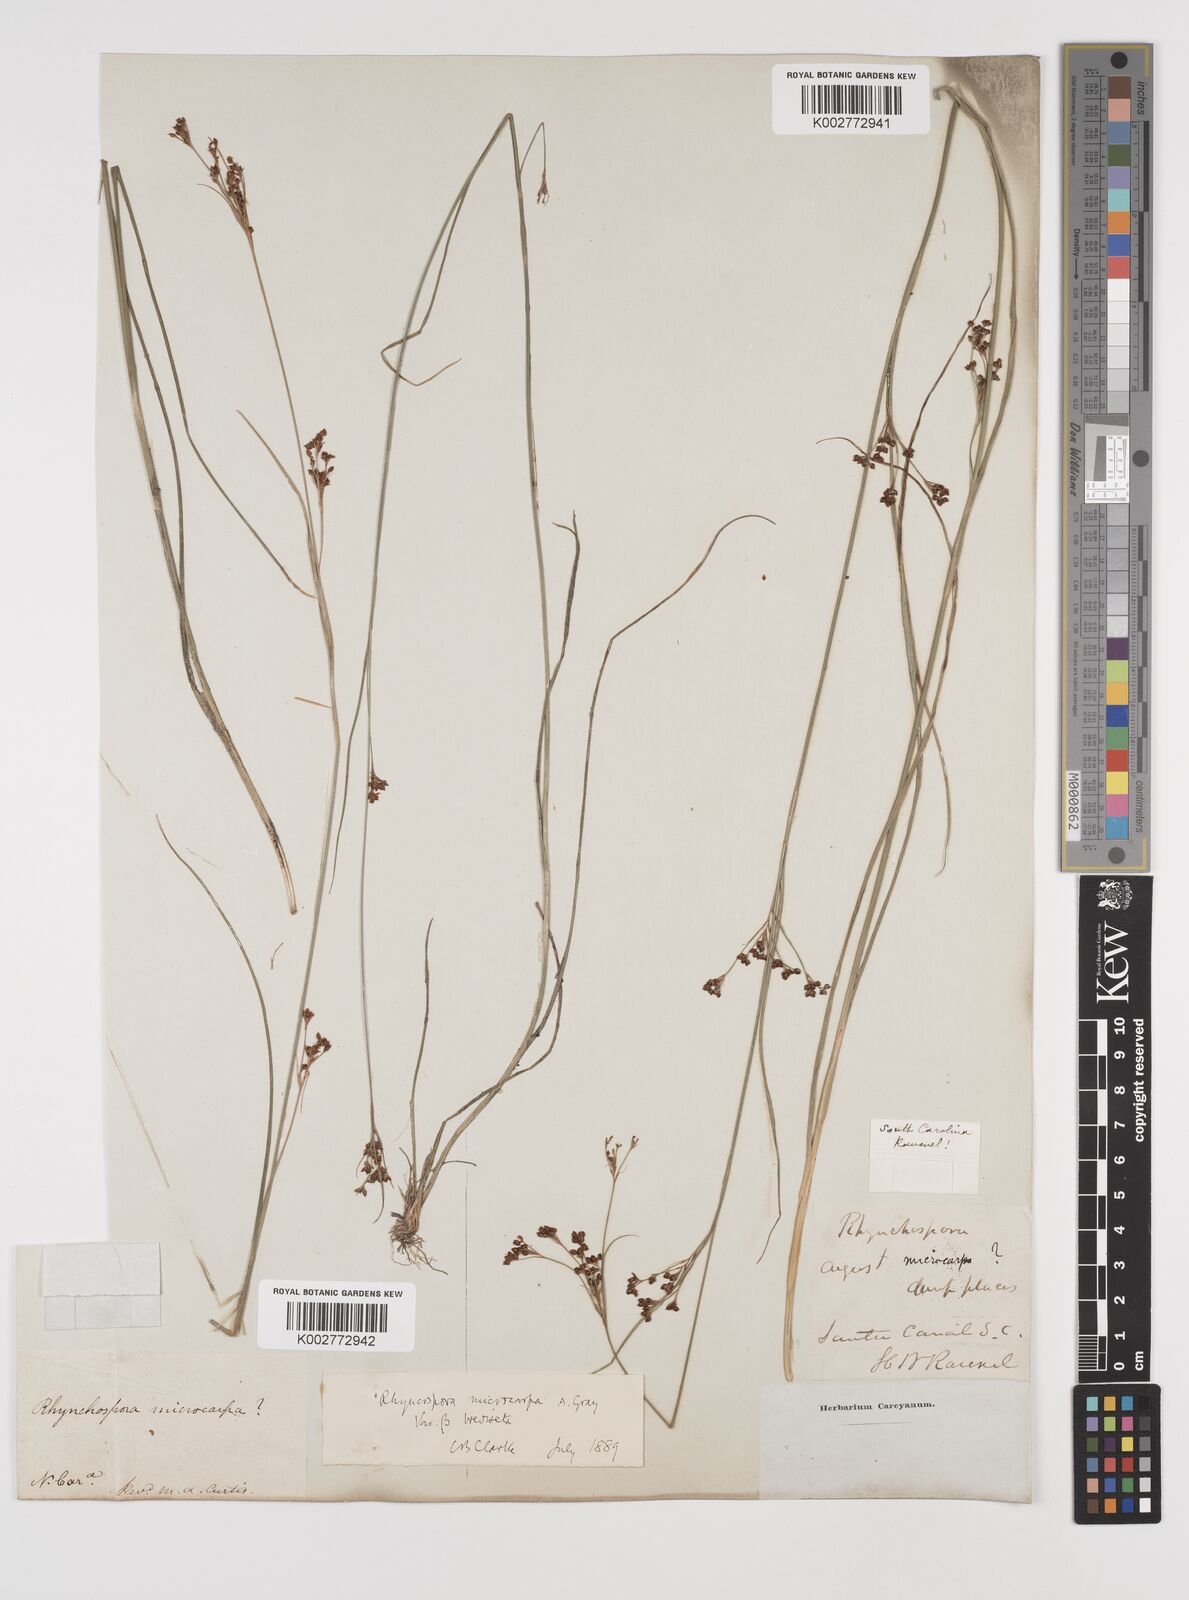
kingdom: Plantae
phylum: Tracheophyta
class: Liliopsida
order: Poales
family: Cyperaceae
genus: Rhynchospora
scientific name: Rhynchospora microcarpa
